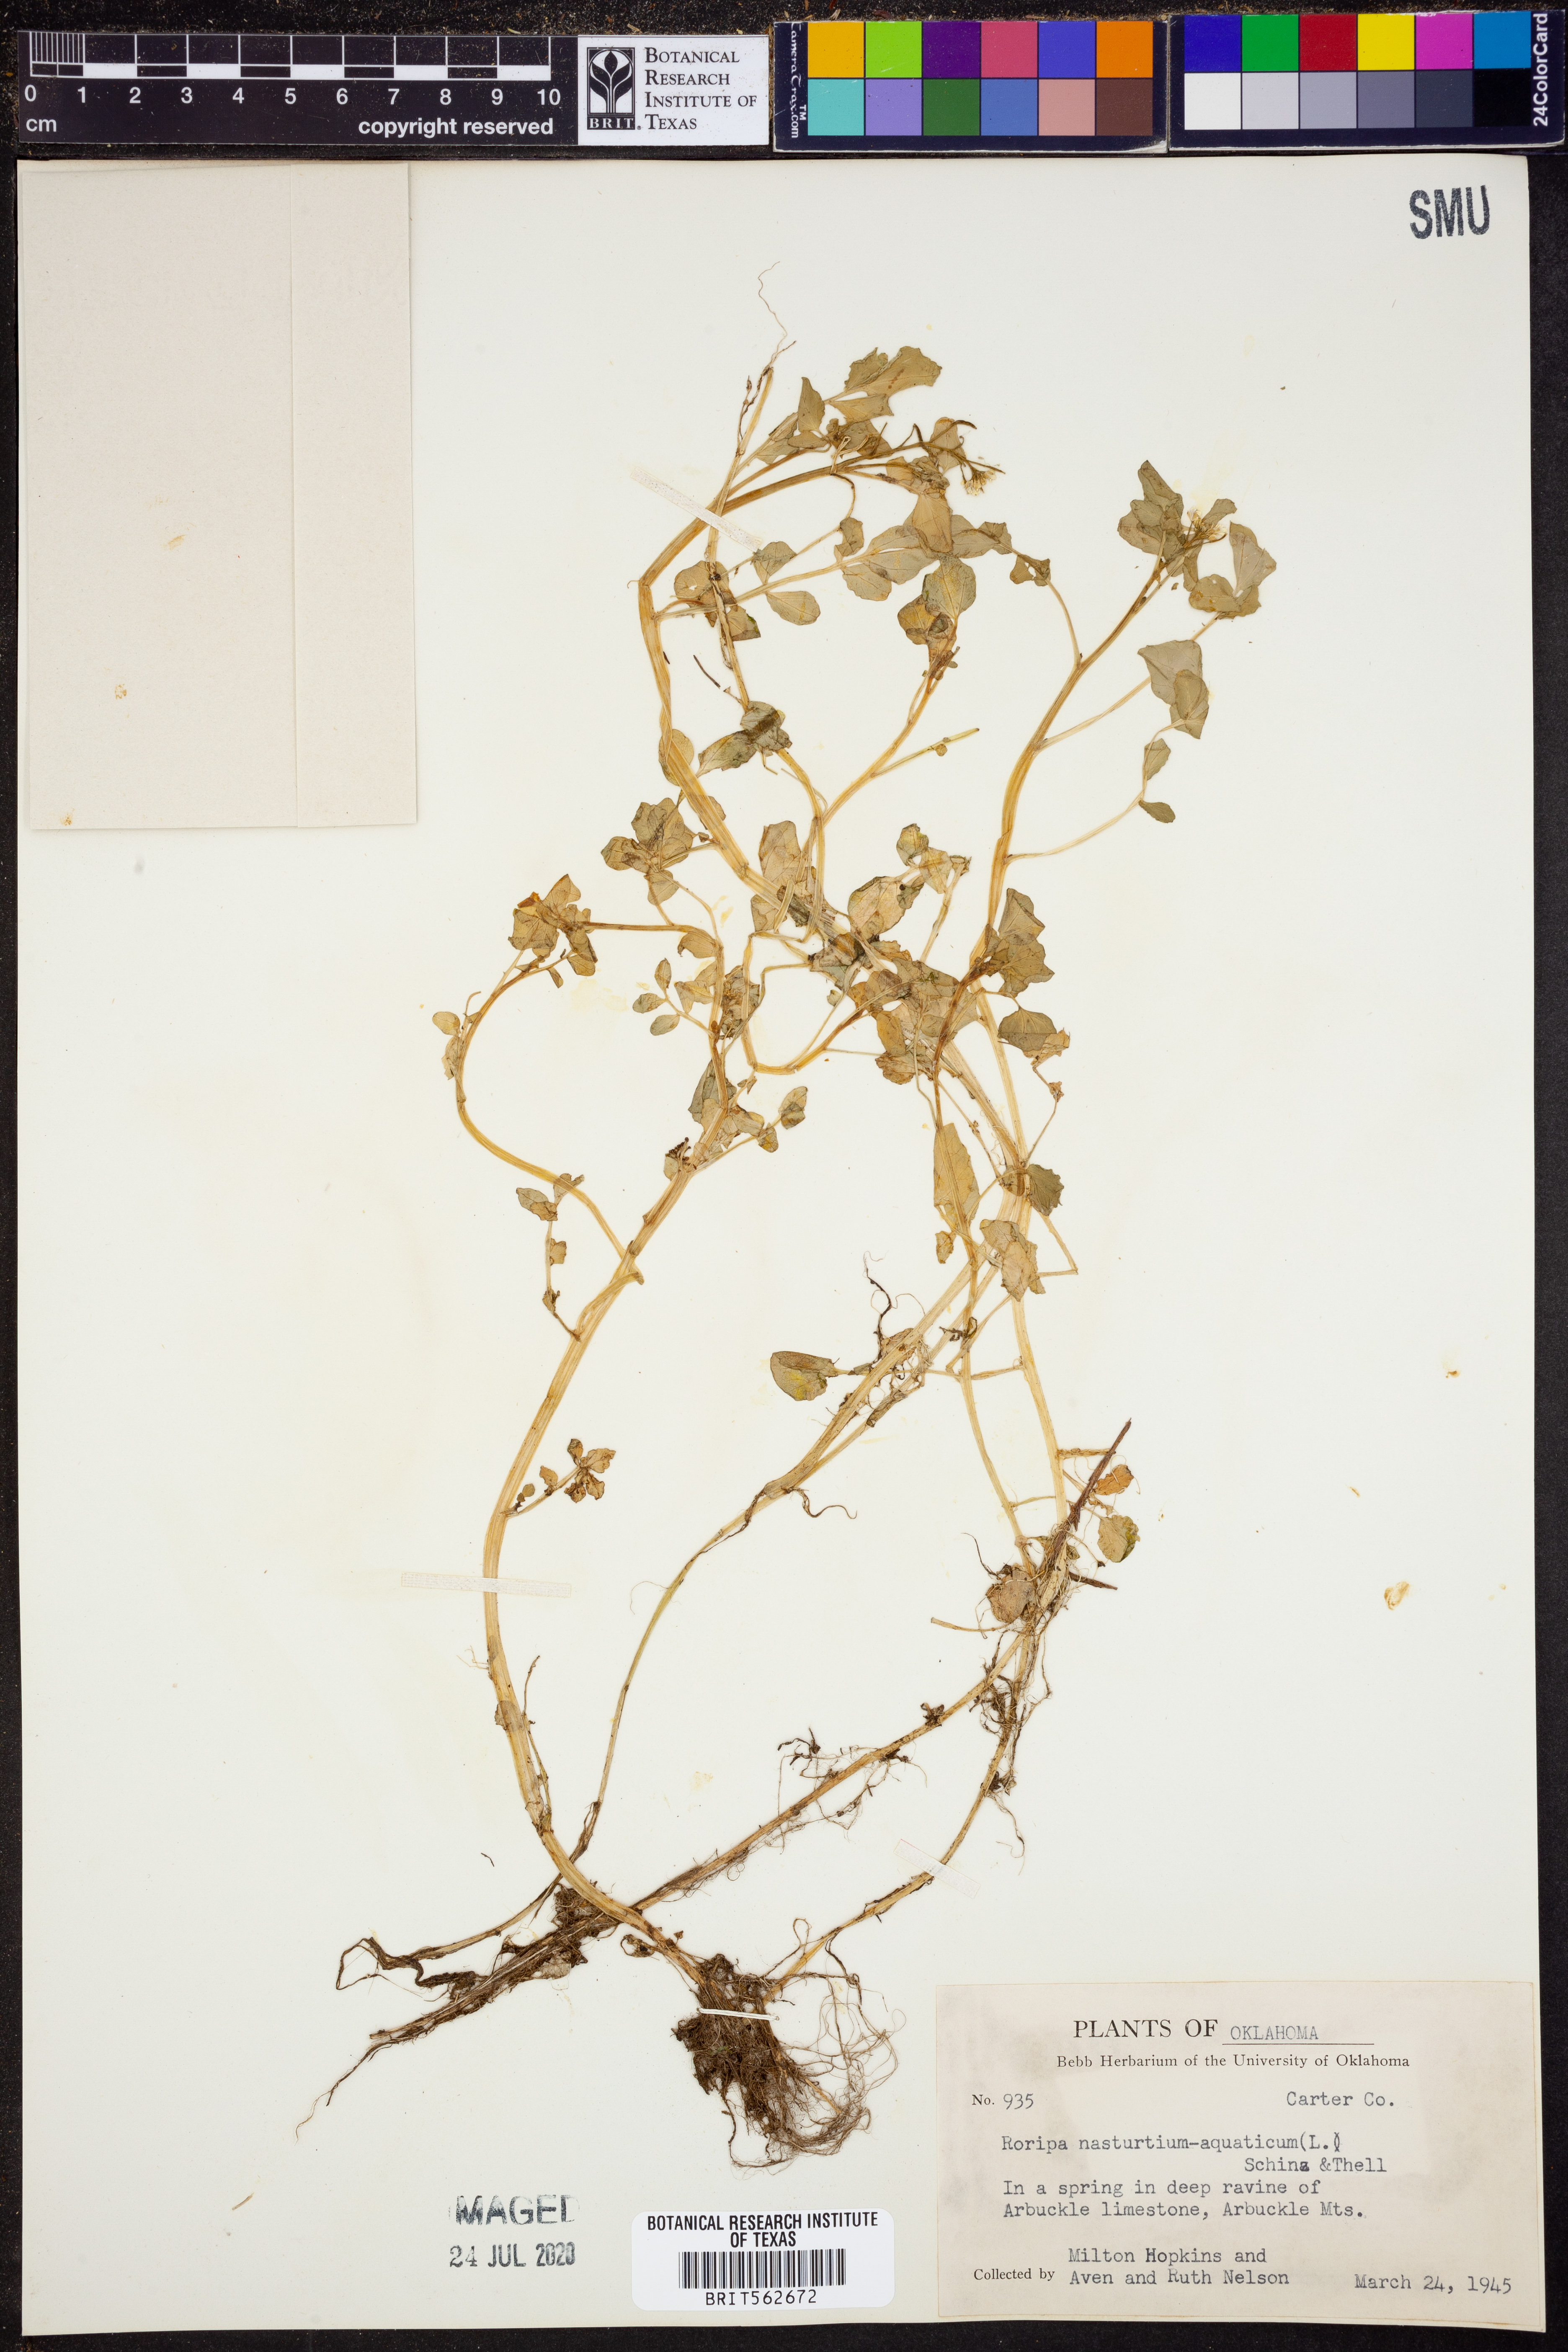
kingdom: Plantae
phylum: Tracheophyta
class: Magnoliopsida
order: Brassicales
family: Brassicaceae
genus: Nasturtium
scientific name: Nasturtium officinale
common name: Watercress
